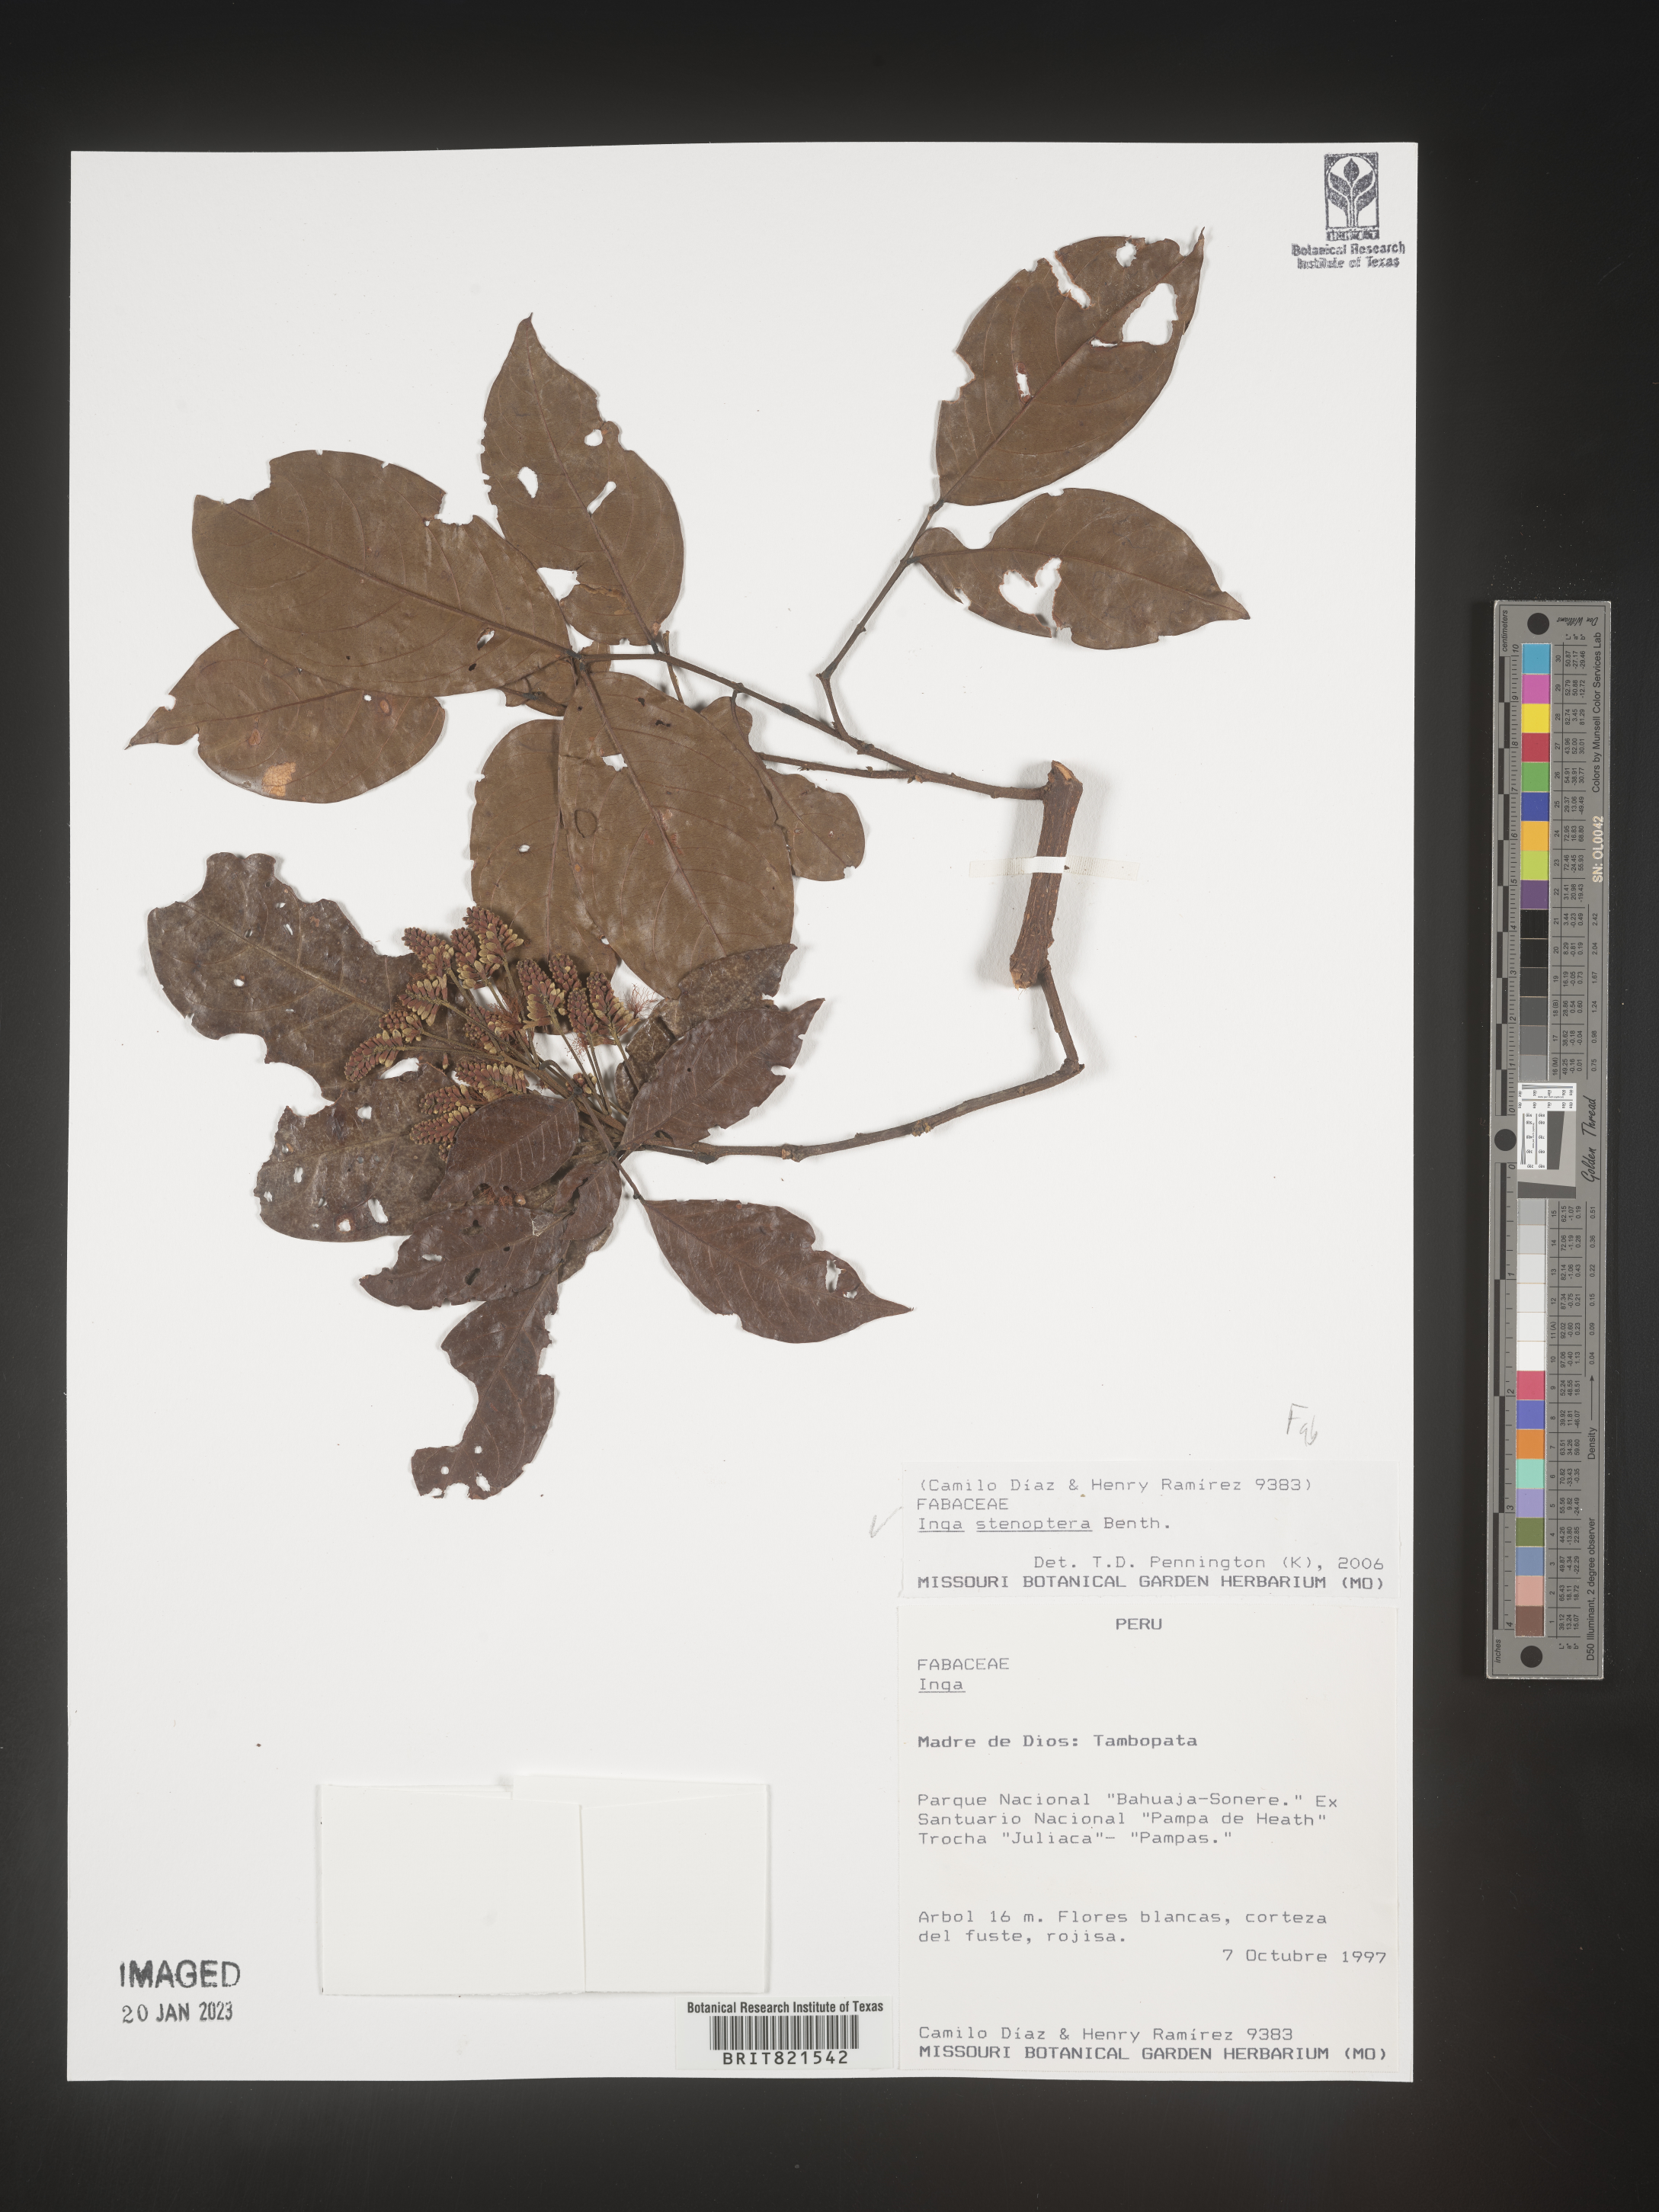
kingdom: Plantae
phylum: Tracheophyta
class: Magnoliopsida
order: Fabales
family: Fabaceae
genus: Inga
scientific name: Inga
